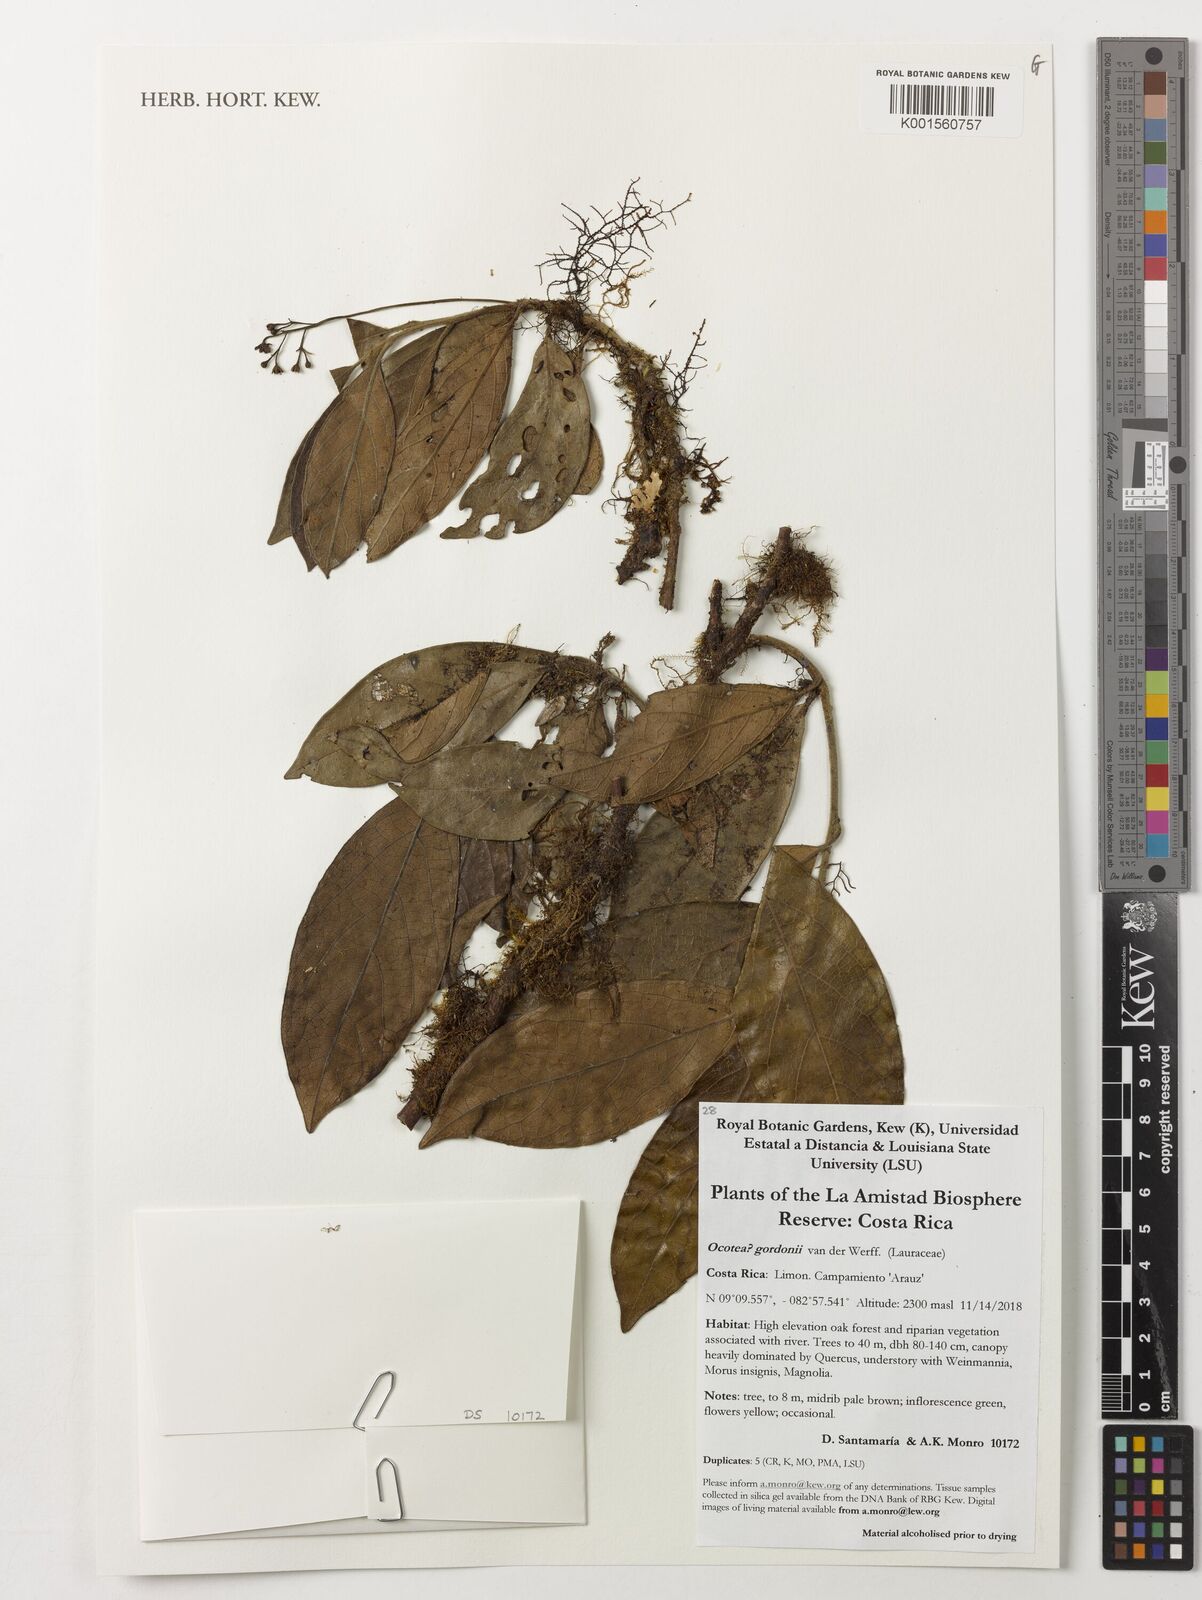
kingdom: Plantae
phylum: Tracheophyta
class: Magnoliopsida
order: Laurales
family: Lauraceae
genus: Ocotea
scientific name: Ocotea gordonii
